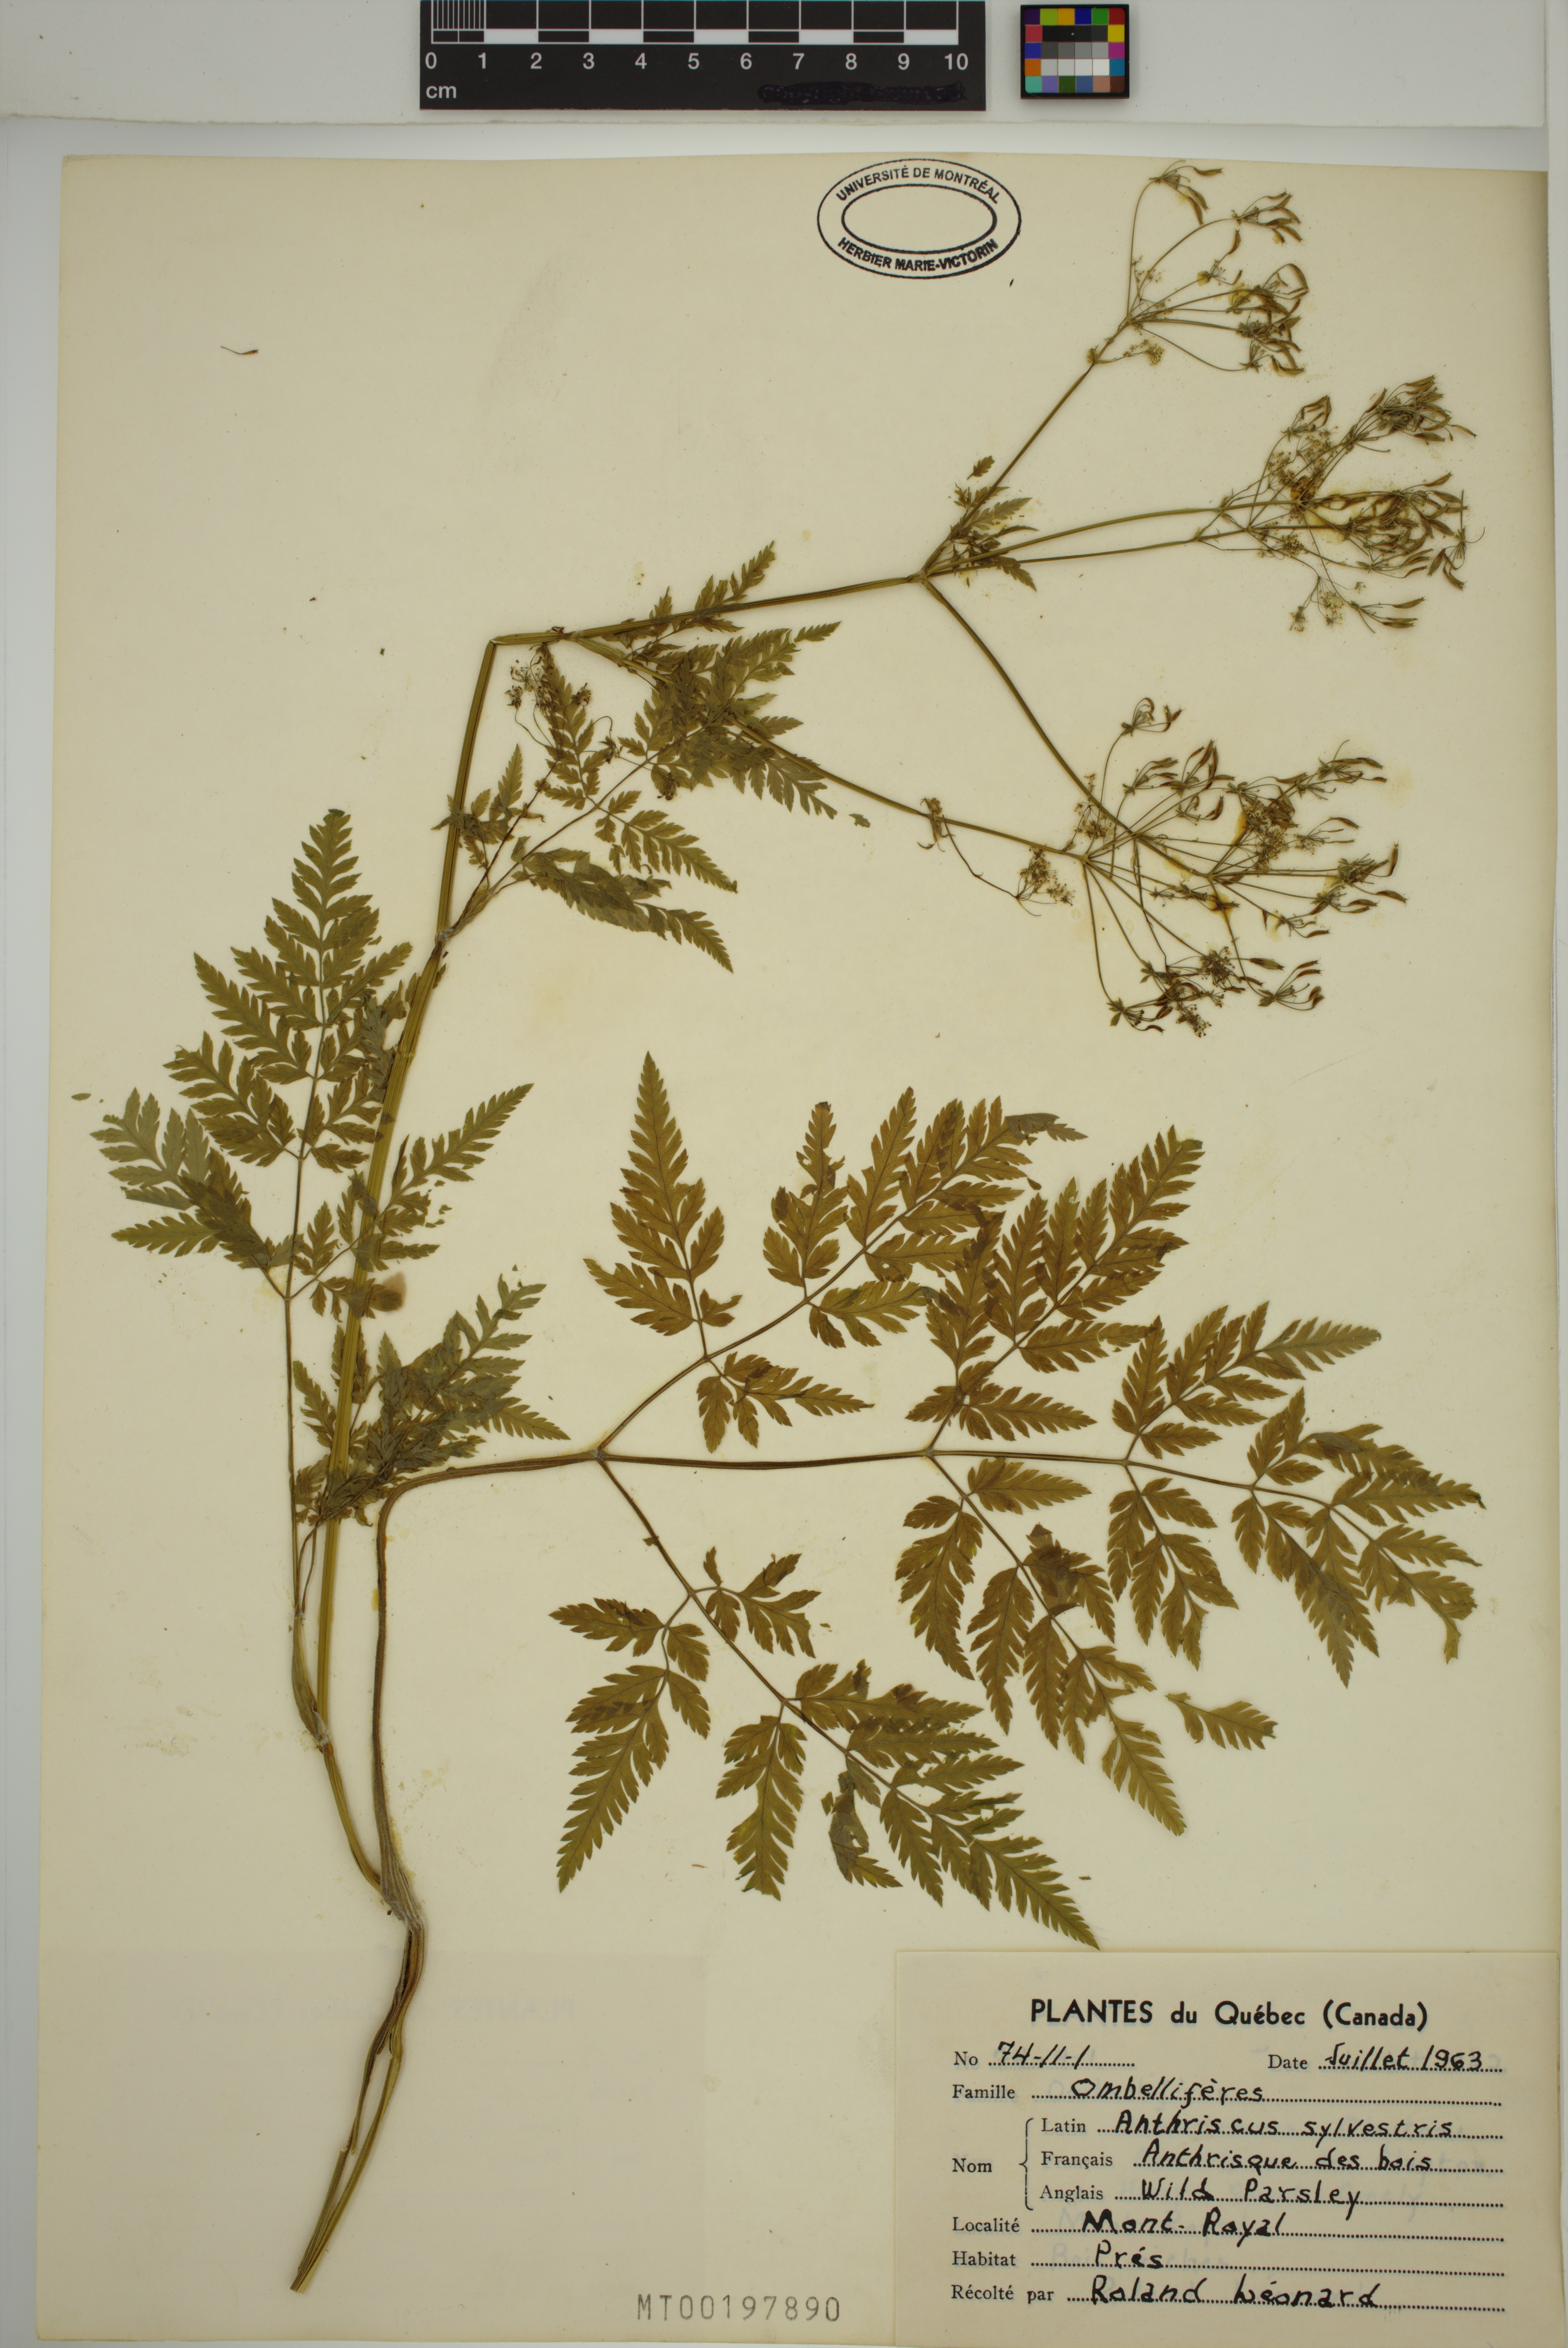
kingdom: Plantae
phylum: Tracheophyta
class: Magnoliopsida
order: Apiales
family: Apiaceae
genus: Anthriscus
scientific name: Anthriscus sylvestris
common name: Cow parsley
